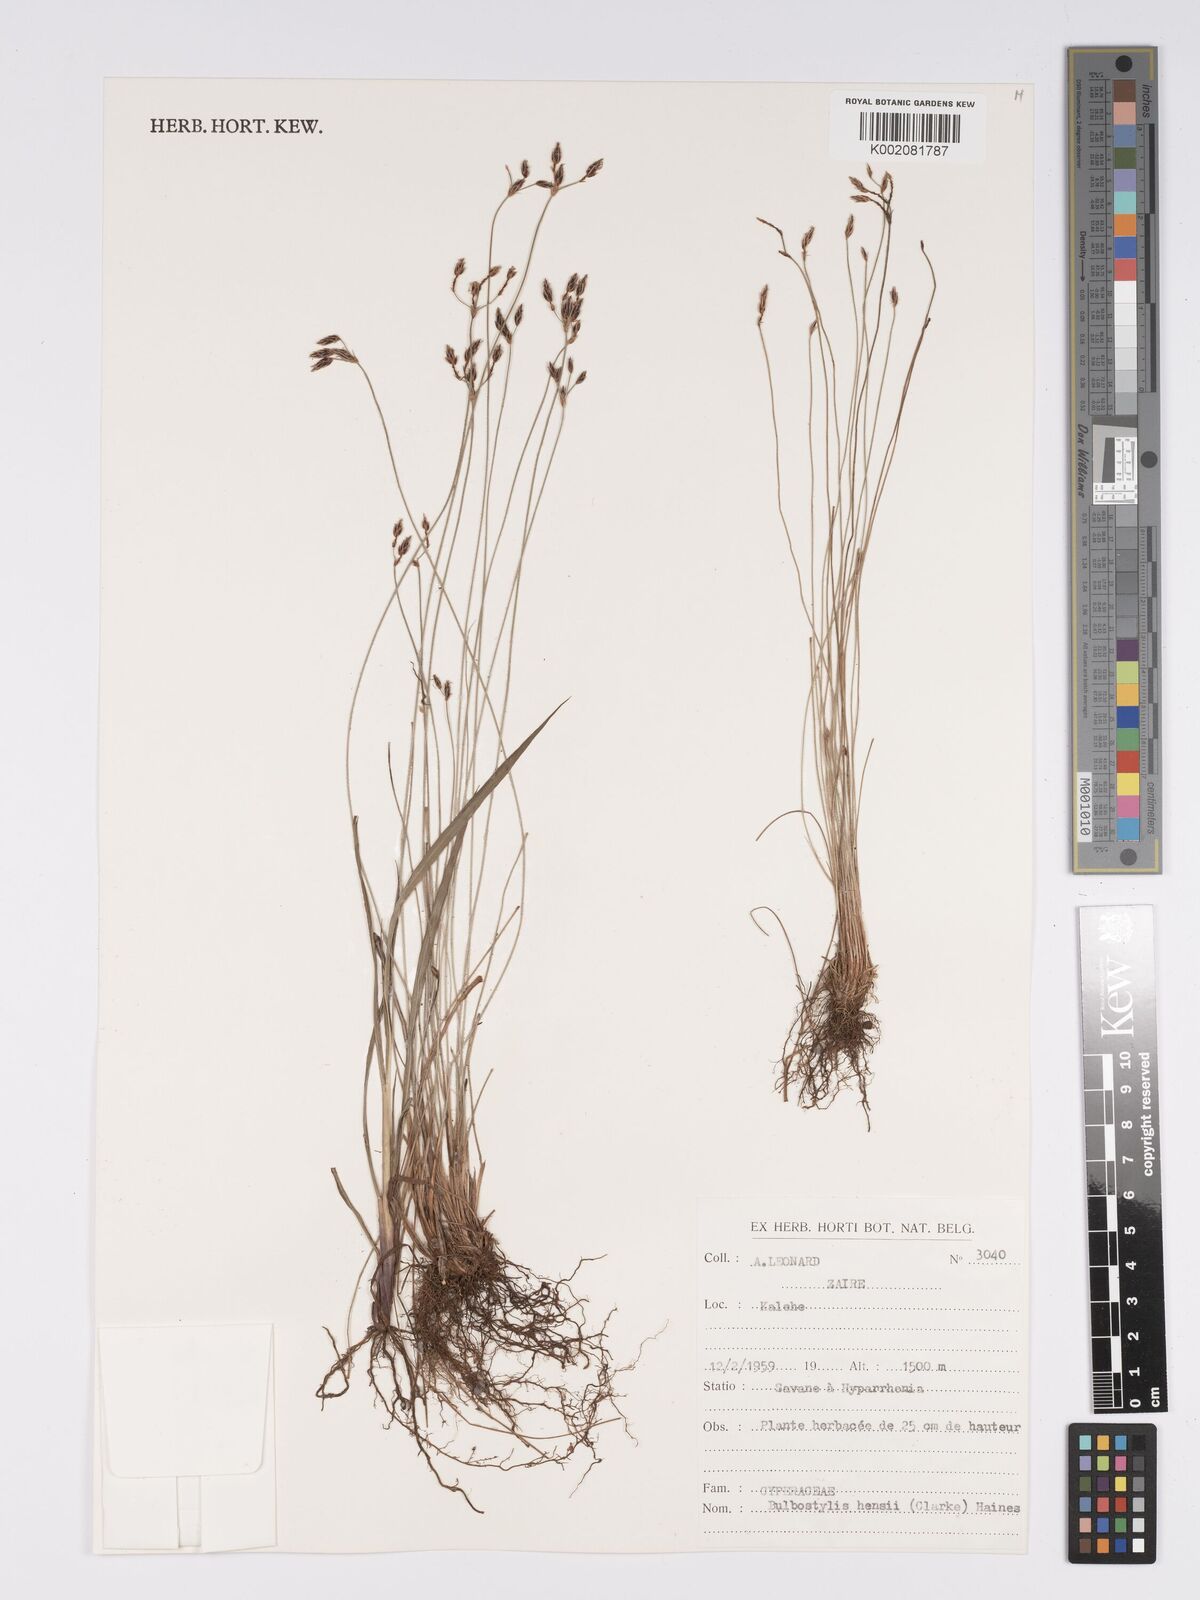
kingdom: Plantae
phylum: Tracheophyta
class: Liliopsida
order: Poales
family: Cyperaceae
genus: Bulbostylis
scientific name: Bulbostylis hensii
